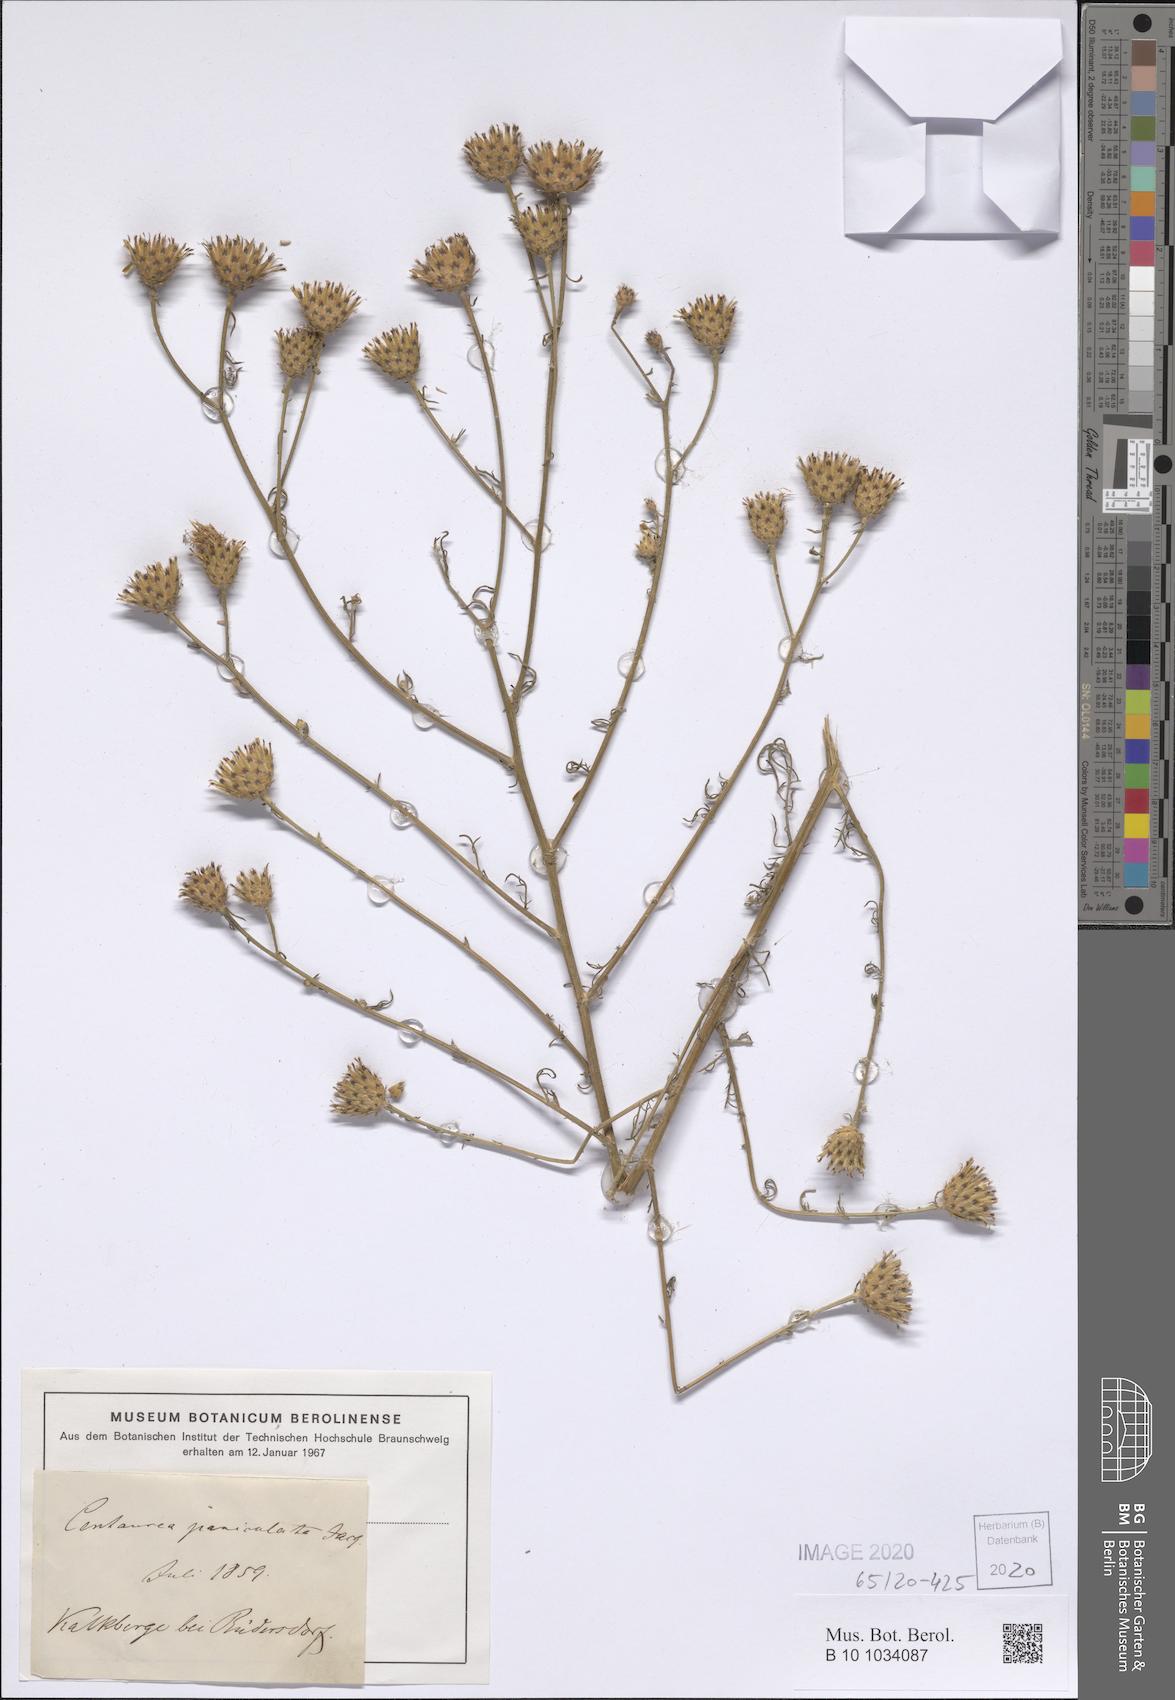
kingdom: Plantae
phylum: Tracheophyta
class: Magnoliopsida
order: Asterales
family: Asteraceae
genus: Centaurea
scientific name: Centaurea paniculata
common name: Jersey knapweed
